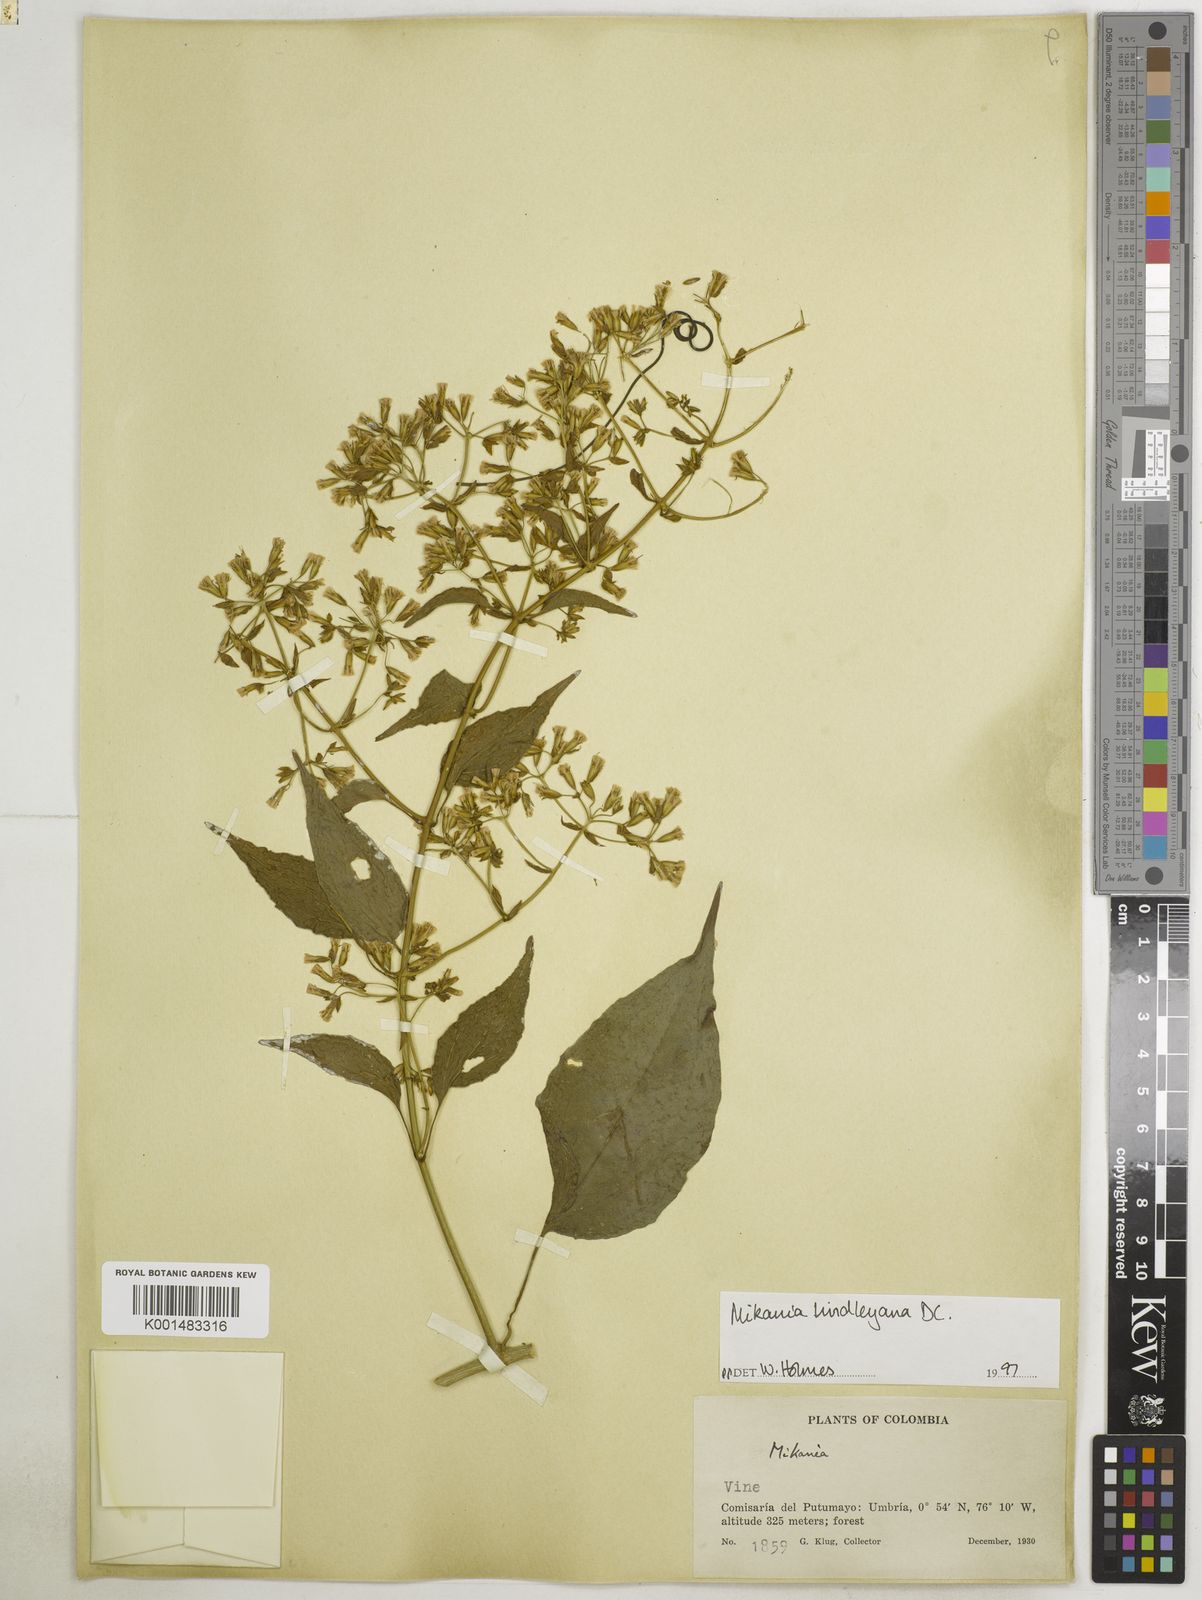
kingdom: Plantae
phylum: Tracheophyta
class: Magnoliopsida
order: Asterales
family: Asteraceae
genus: Mikania
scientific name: Mikania lindleyana
